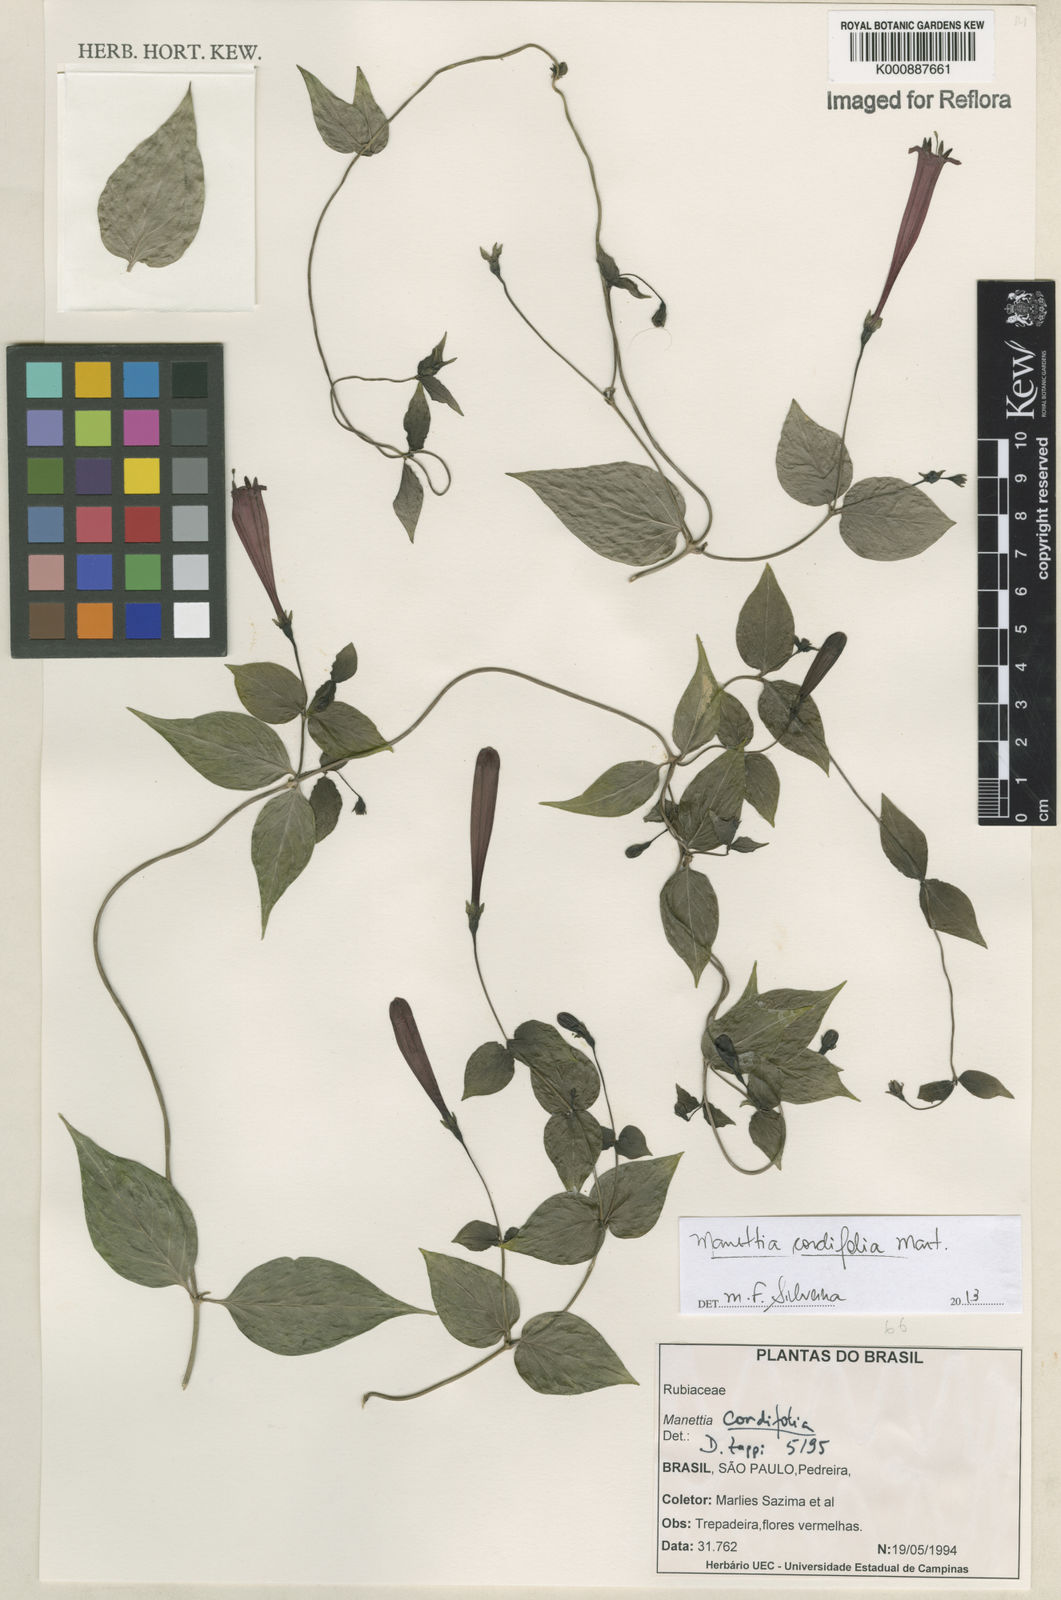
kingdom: Plantae
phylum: Tracheophyta
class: Magnoliopsida
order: Gentianales
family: Rubiaceae
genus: Manettia
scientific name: Manettia
